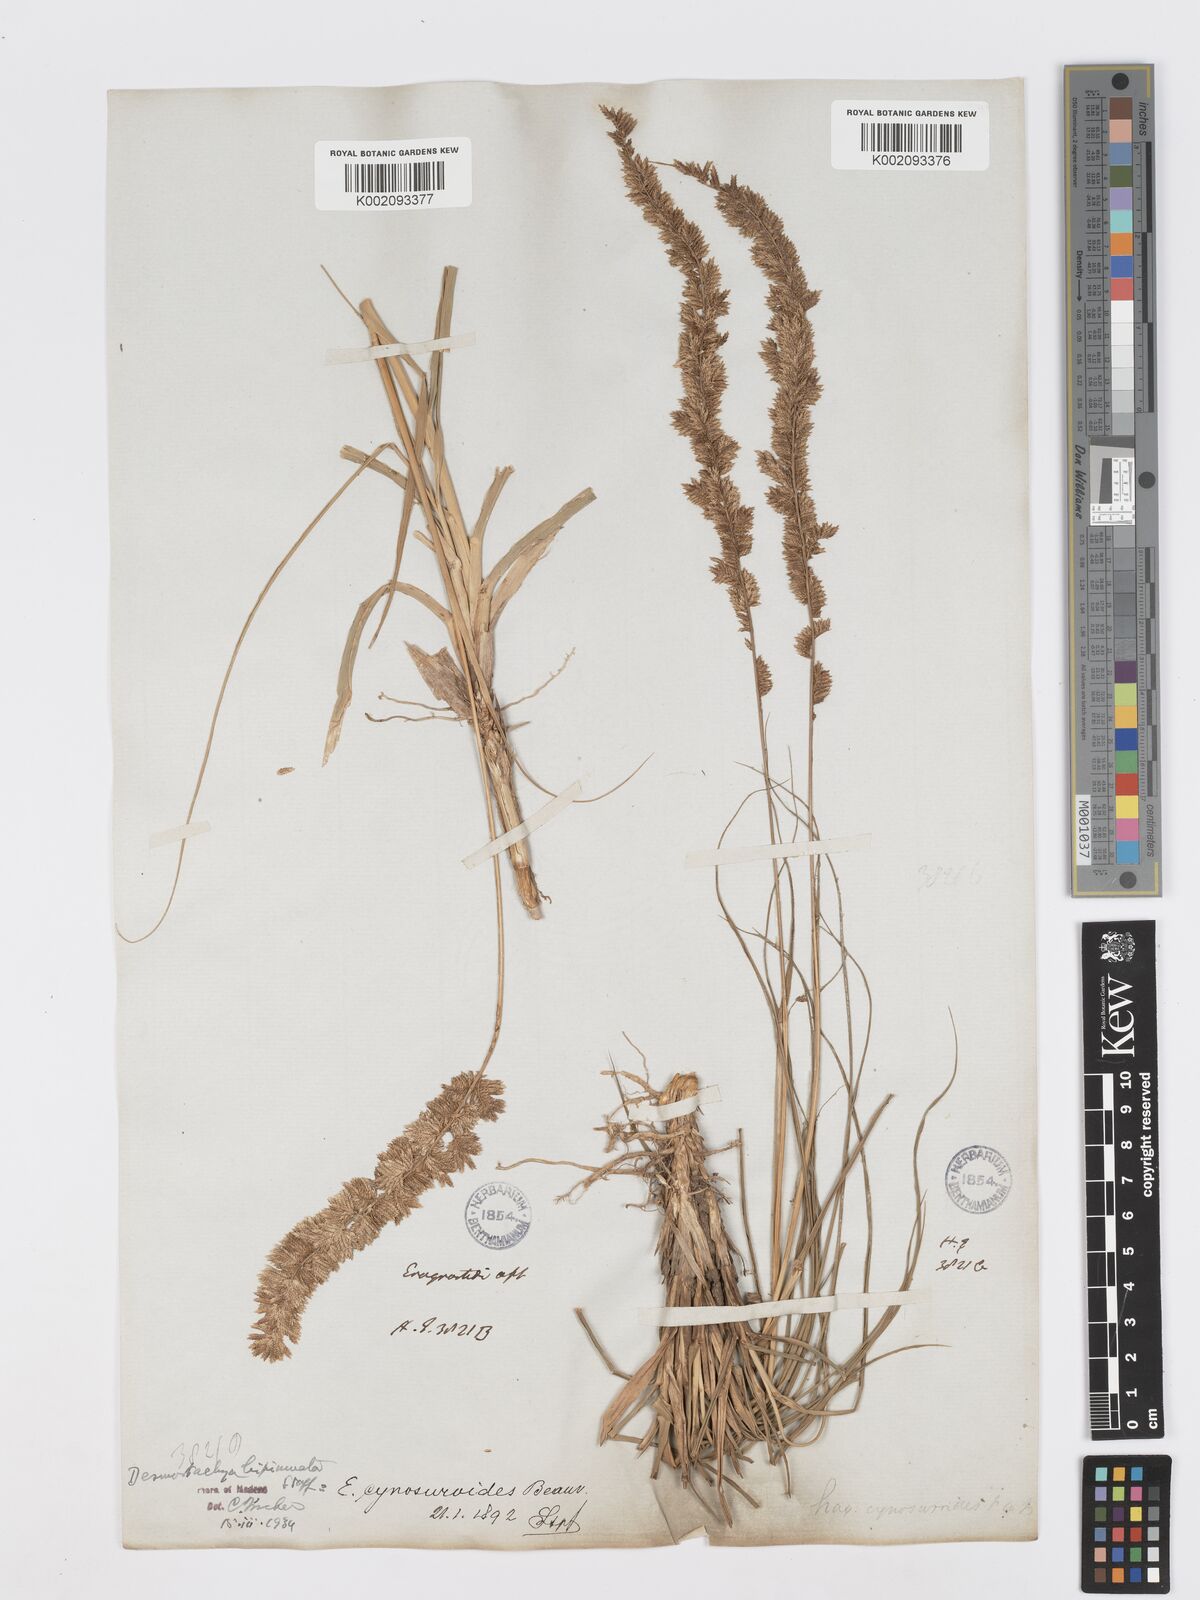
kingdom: Plantae
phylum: Tracheophyta
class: Liliopsida
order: Poales
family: Poaceae
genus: Desmostachya
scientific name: Desmostachya bipinnata
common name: Crowfoot grass
